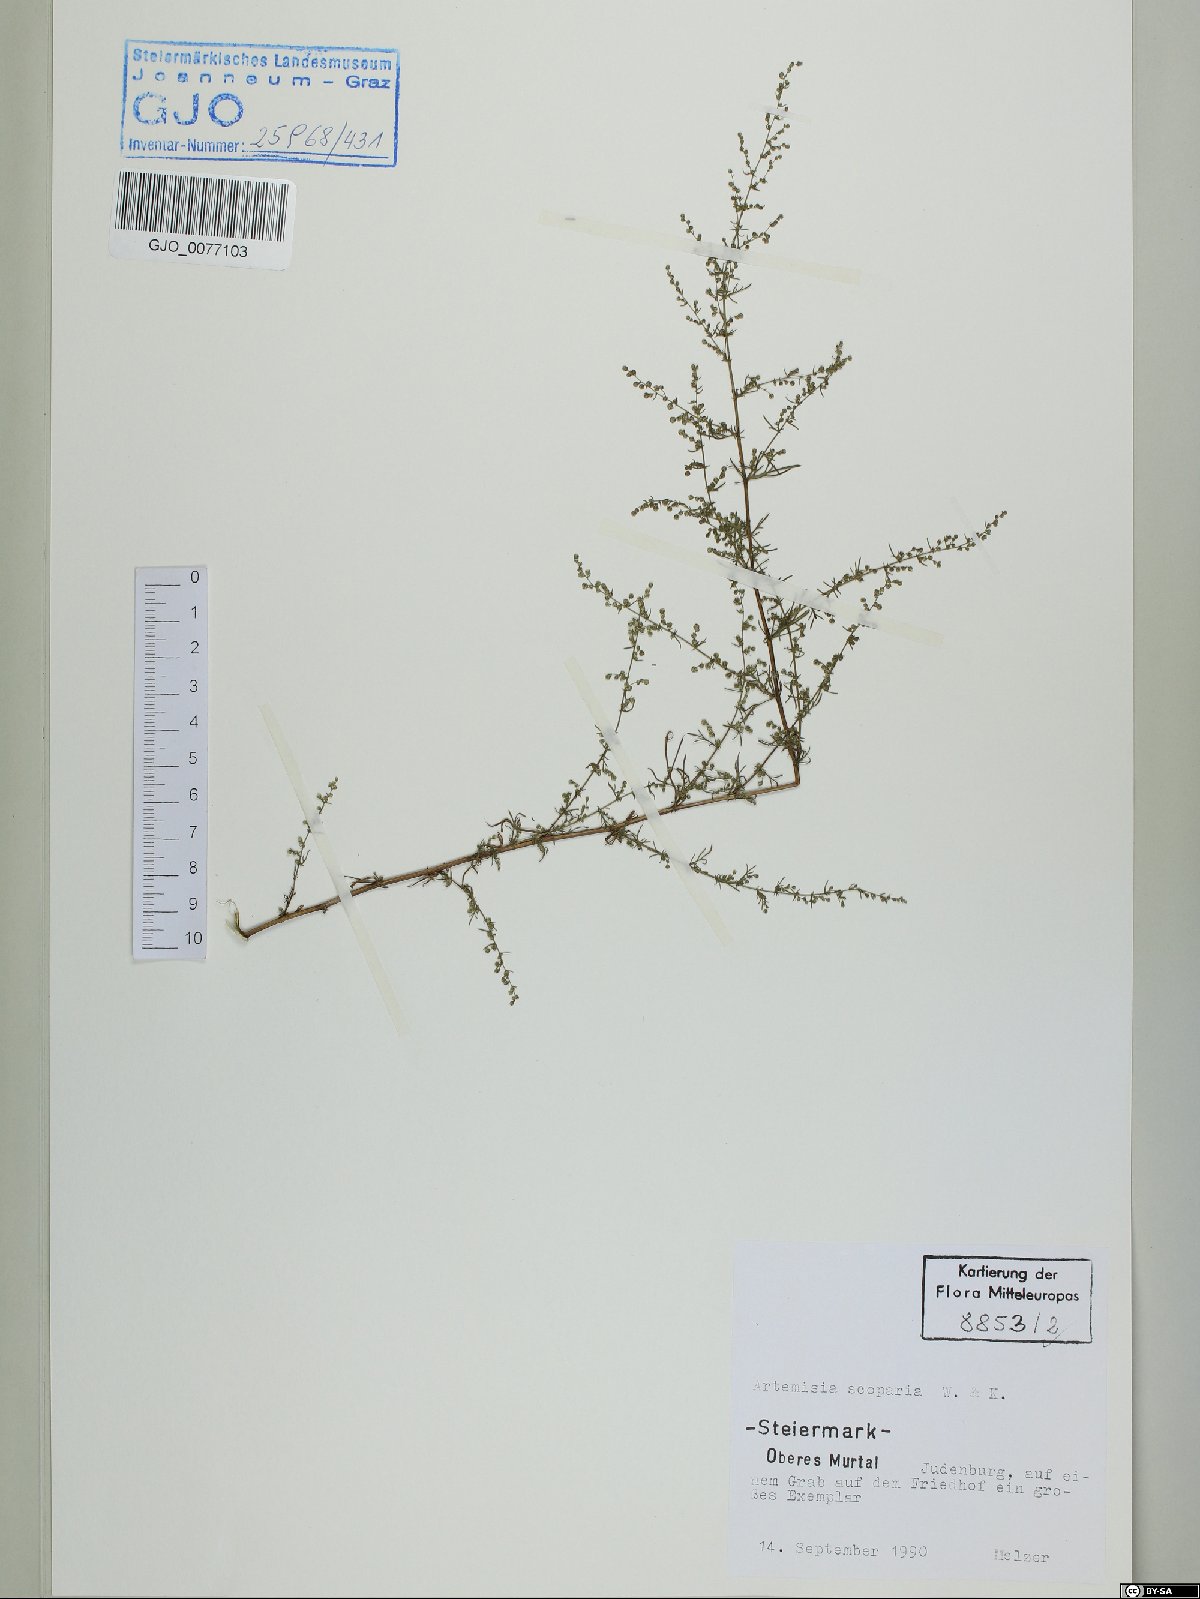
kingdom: Plantae
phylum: Tracheophyta
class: Magnoliopsida
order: Asterales
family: Asteraceae
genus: Artemisia
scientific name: Artemisia scoparia
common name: Redstem wormwood
